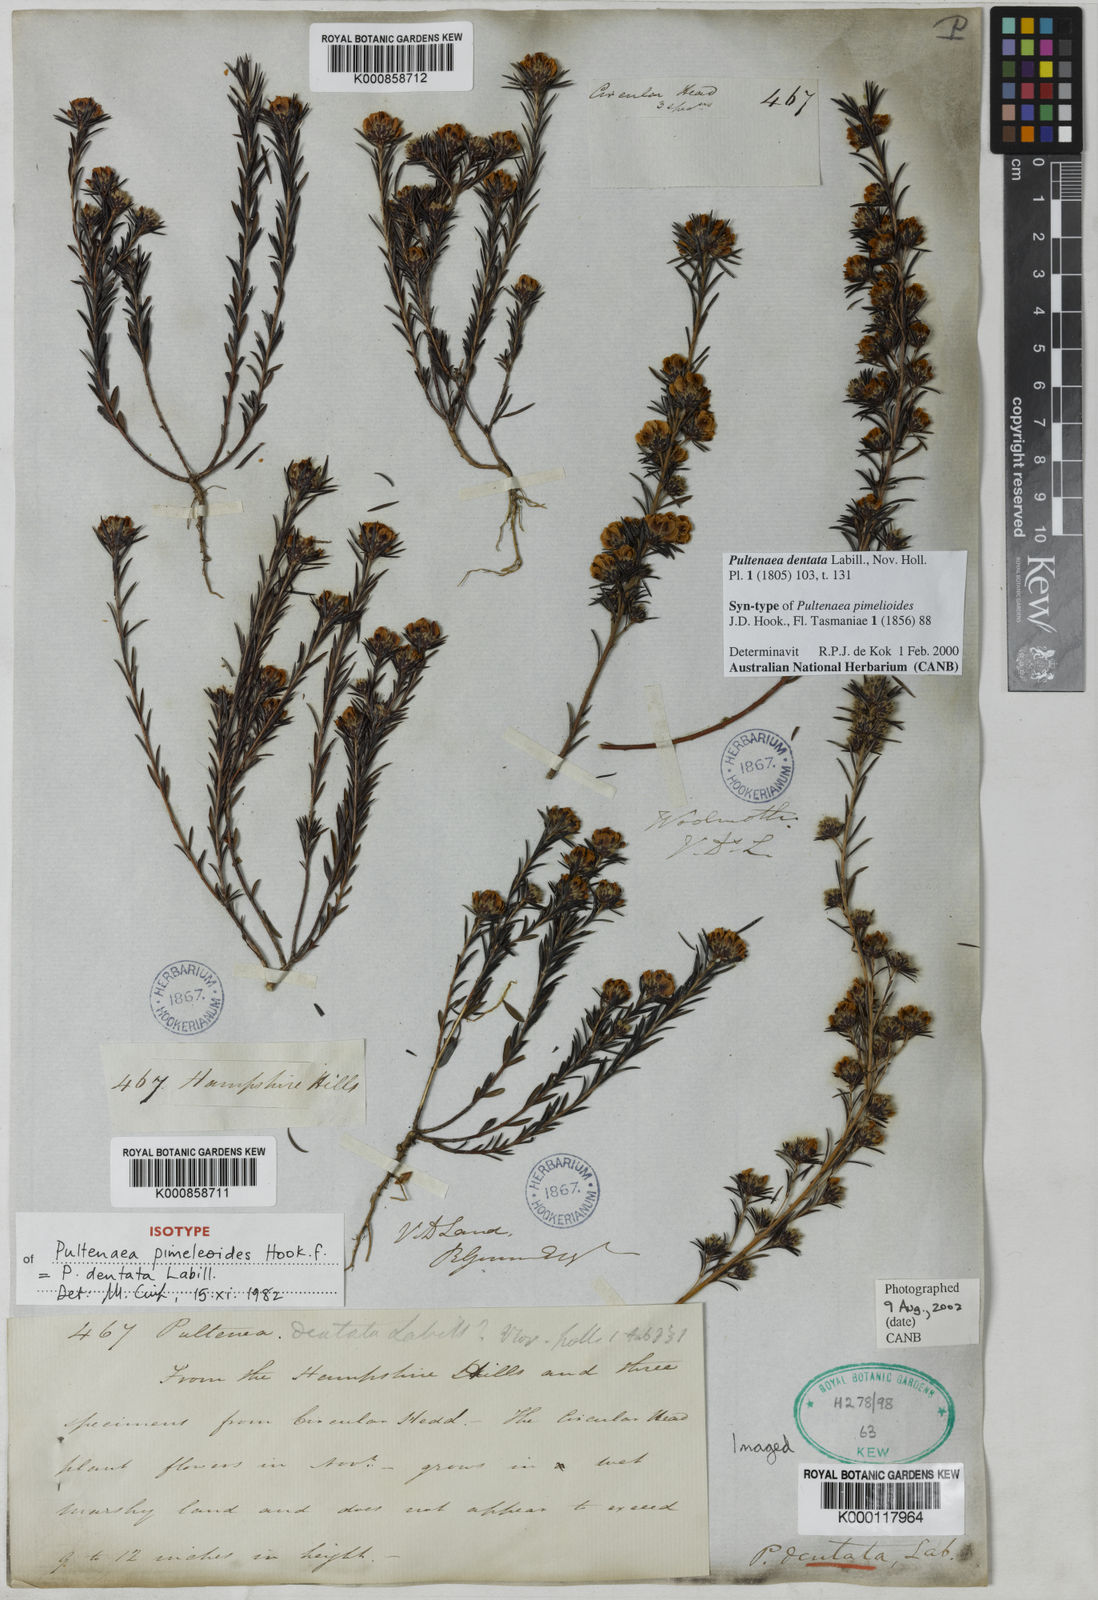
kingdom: Plantae
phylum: Tracheophyta
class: Magnoliopsida
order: Fabales
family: Fabaceae
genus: Pultenaea
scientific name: Pultenaea dentata
